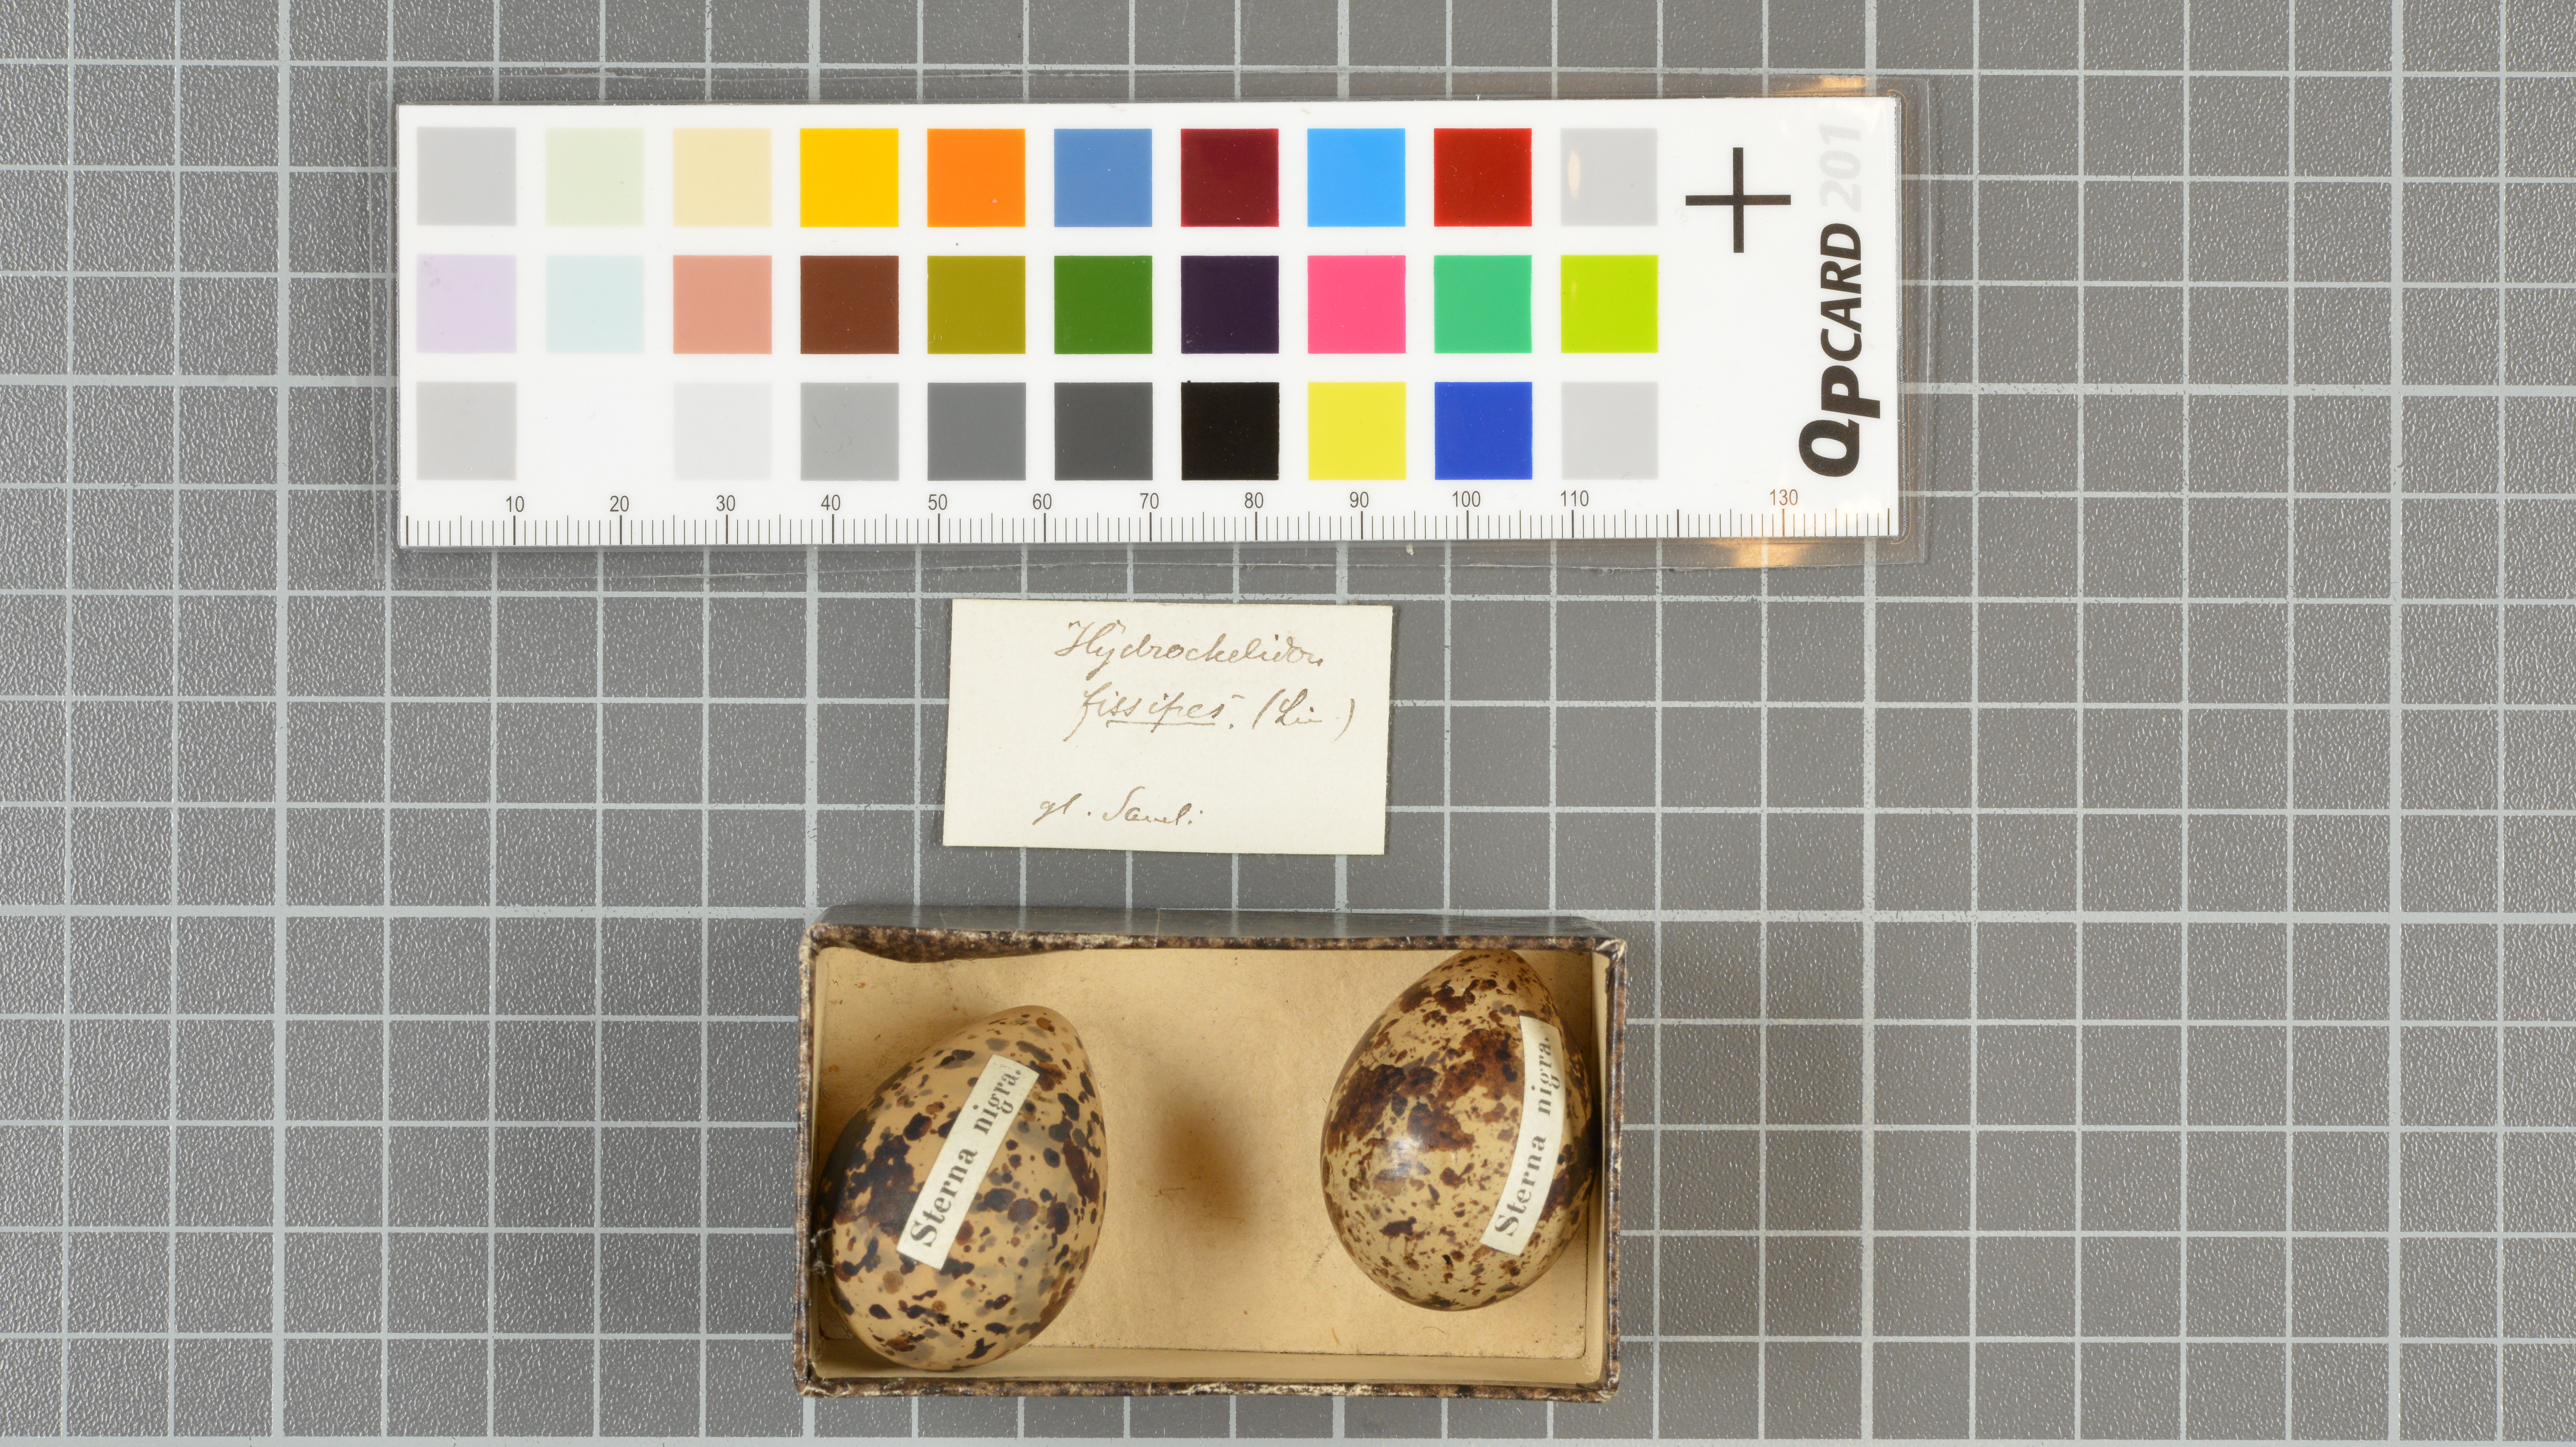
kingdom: Animalia
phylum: Chordata
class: Aves
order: Charadriiformes
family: Laridae
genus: Chlidonias
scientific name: Chlidonias niger
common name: Black tern
